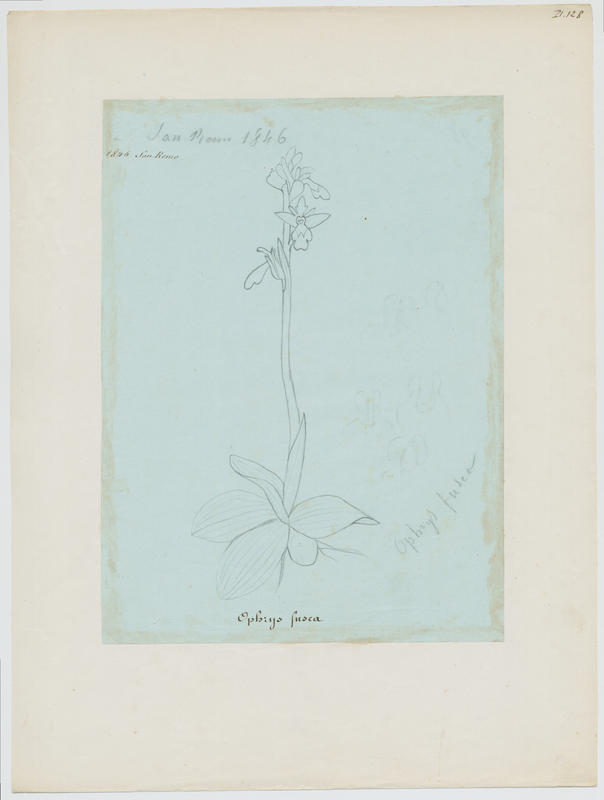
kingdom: Plantae
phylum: Tracheophyta
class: Liliopsida
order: Asparagales
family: Orchidaceae
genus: Ophrys
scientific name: Ophrys fusca
